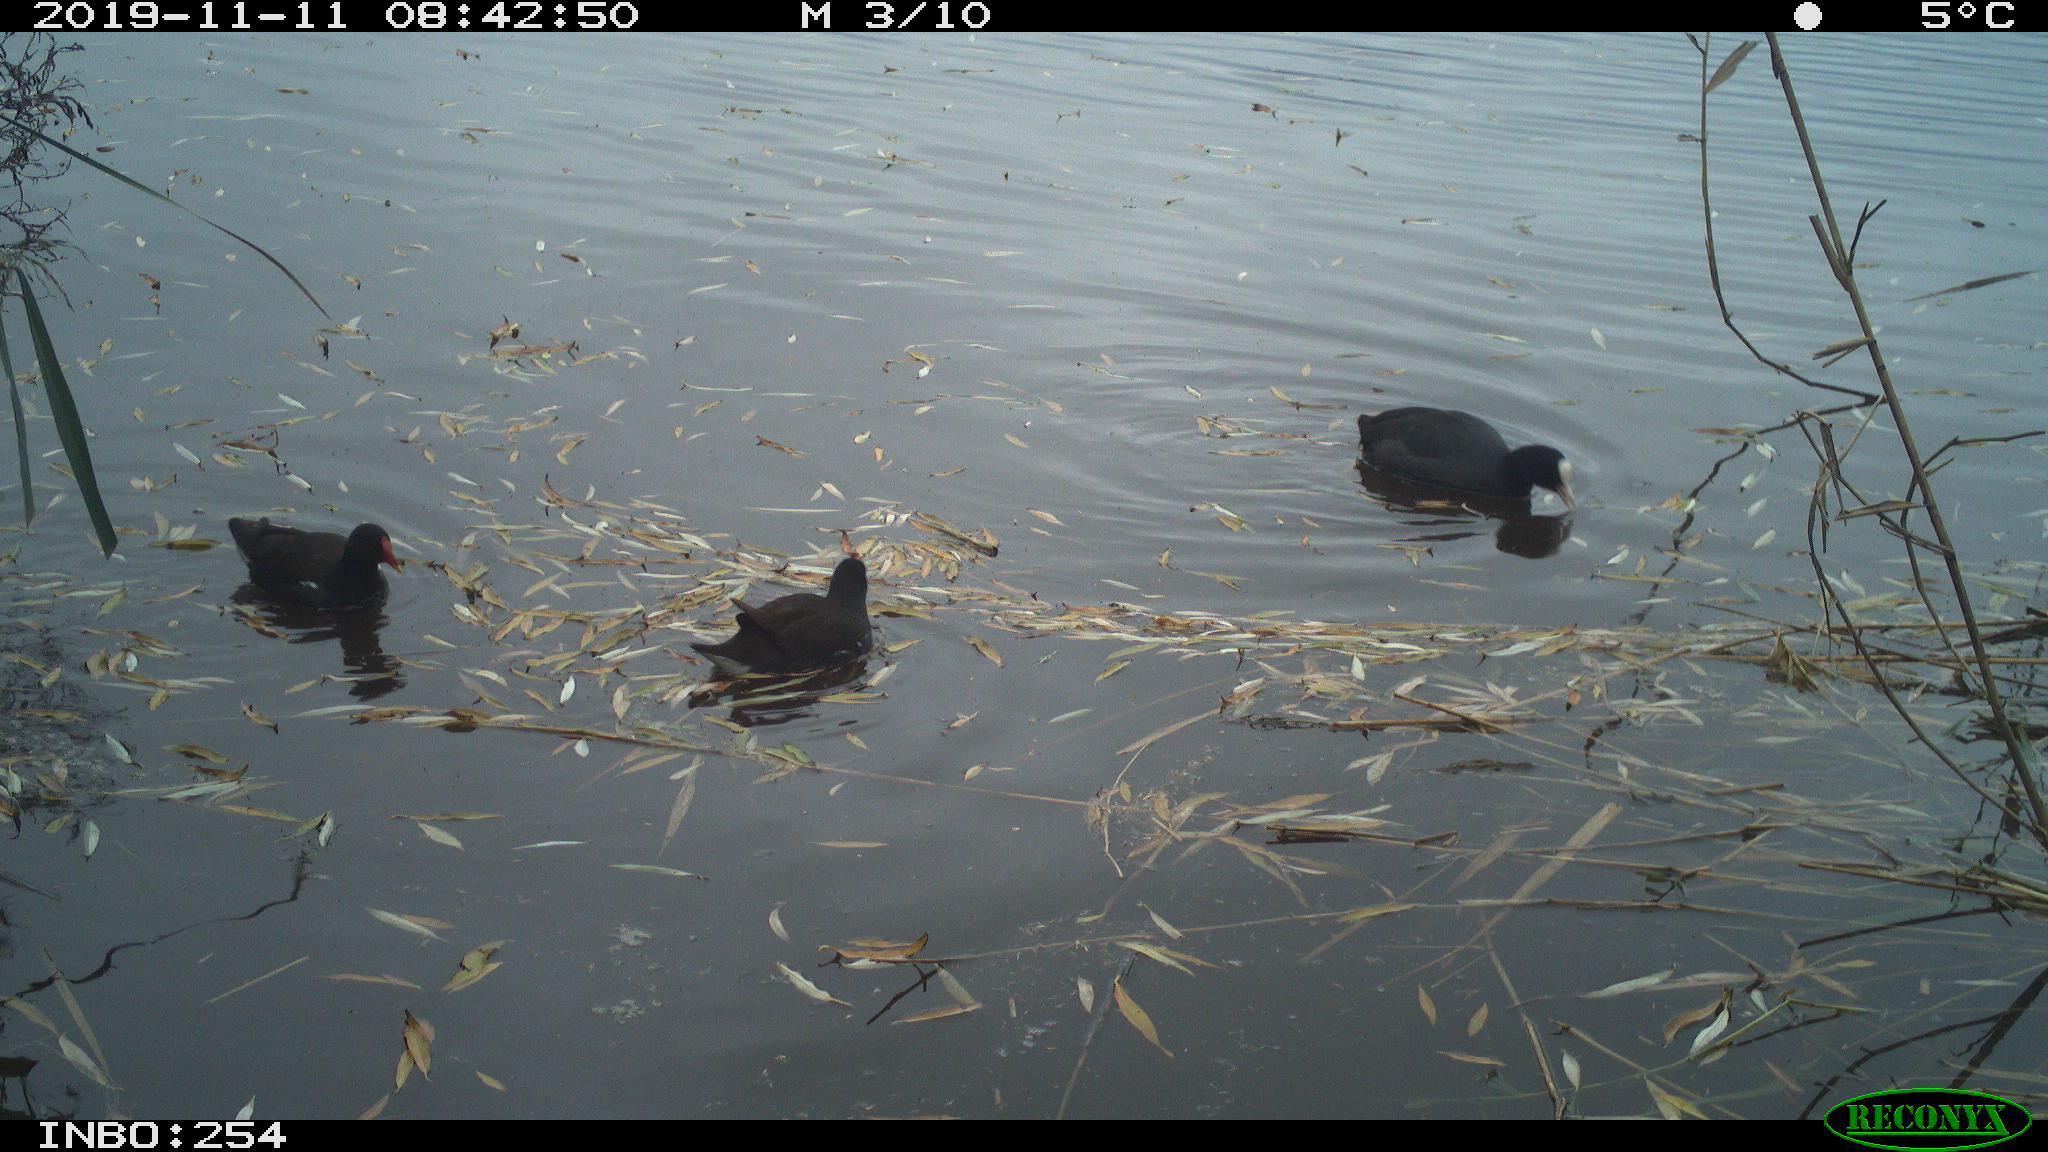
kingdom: Animalia
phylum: Chordata
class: Aves
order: Gruiformes
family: Rallidae
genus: Gallinula
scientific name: Gallinula chloropus
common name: Common moorhen
